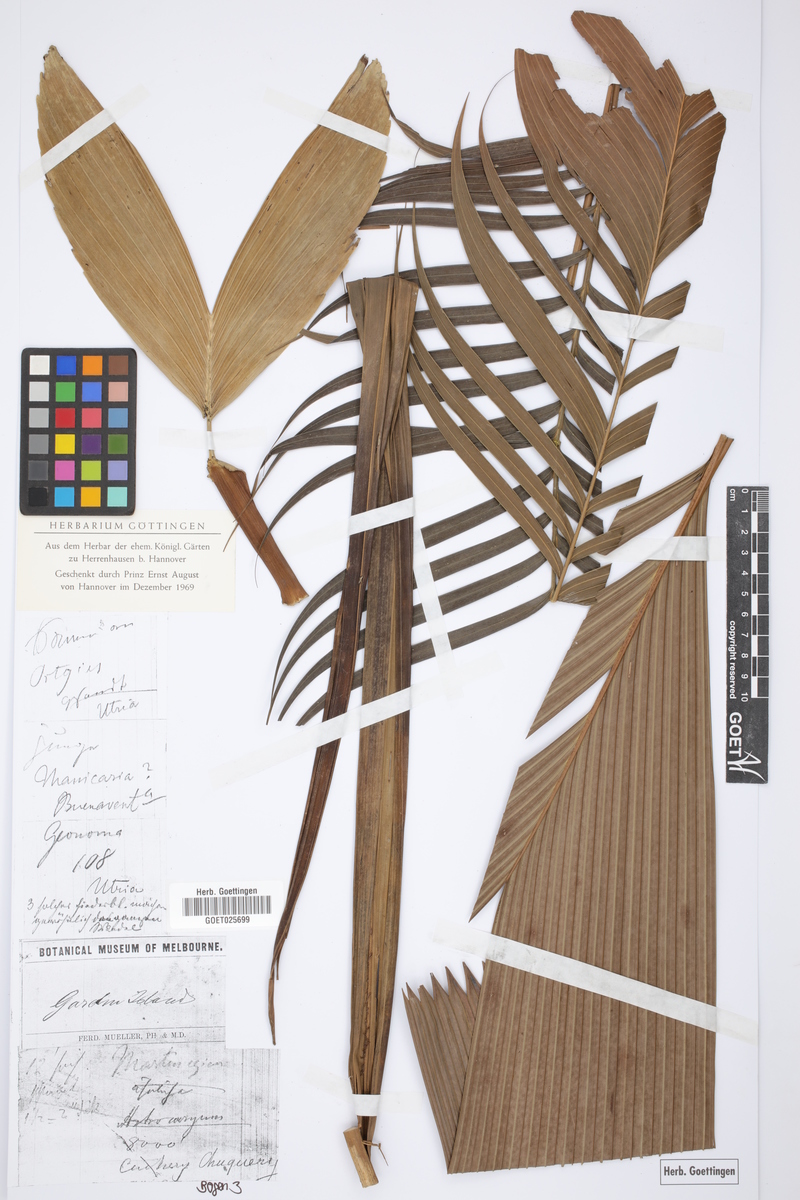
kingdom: Plantae
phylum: Tracheophyta
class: Liliopsida
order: Arecales
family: Arecaceae
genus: Manicaria
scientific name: Manicaria
